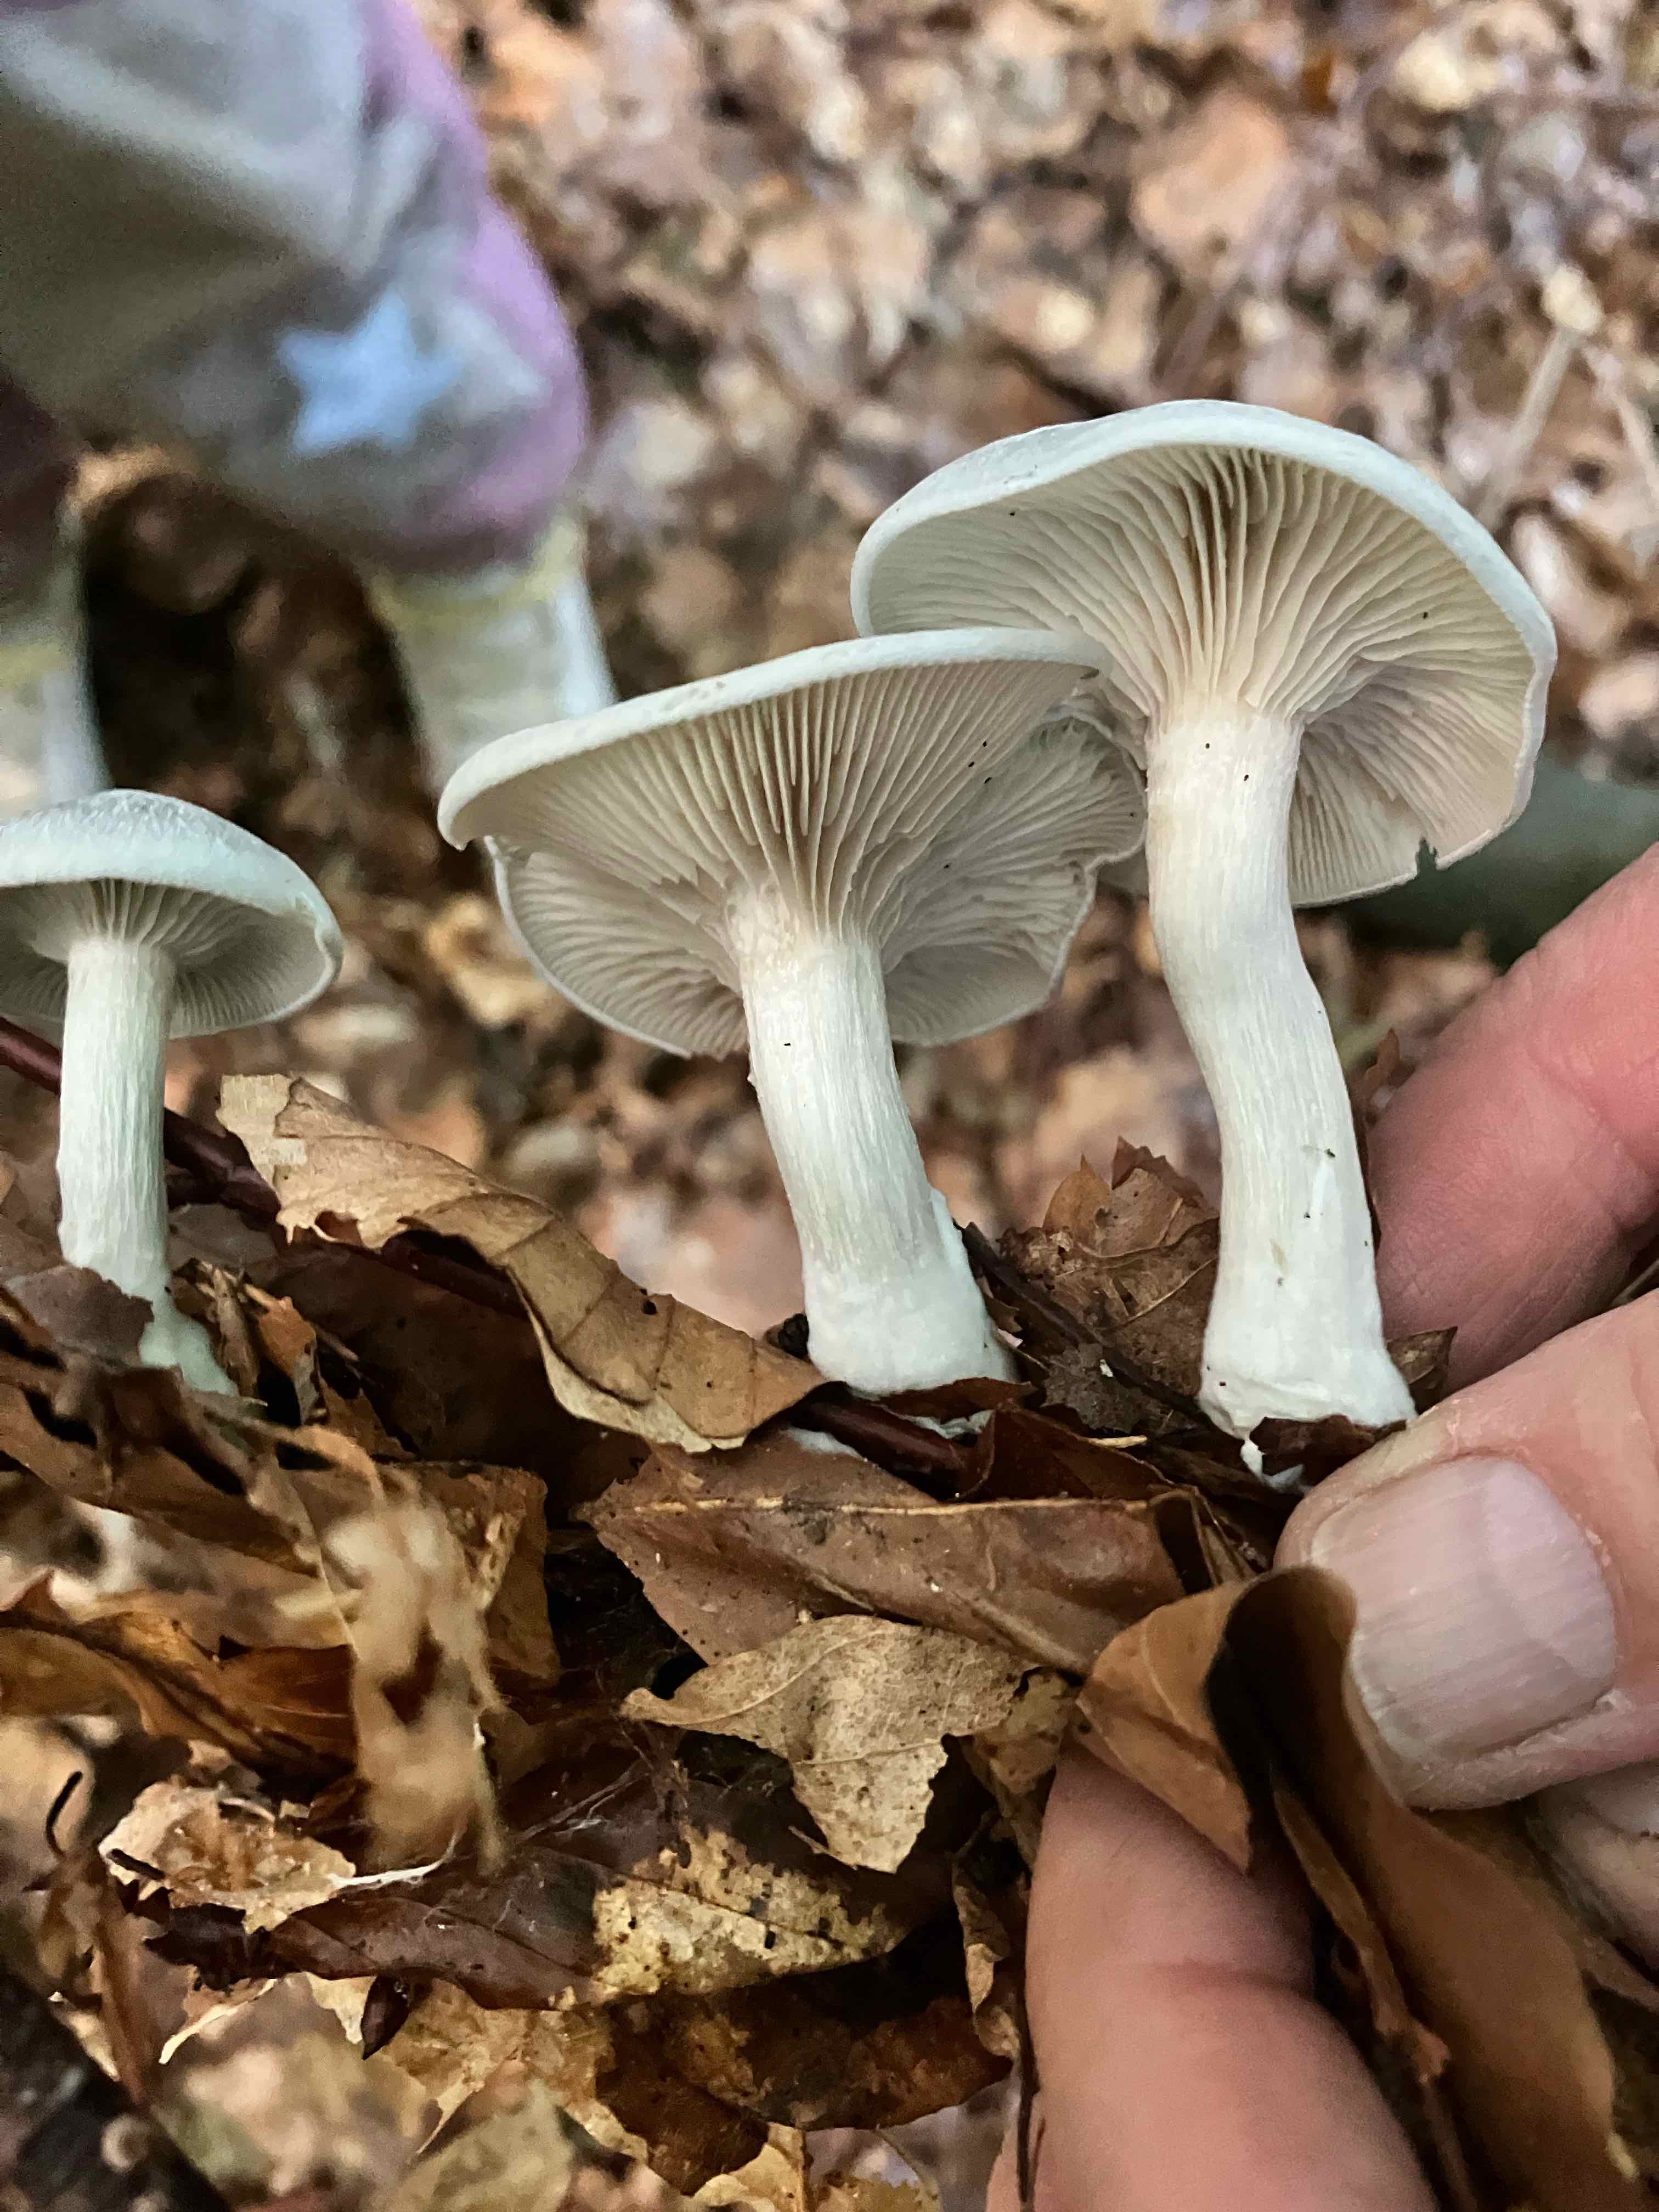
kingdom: Fungi
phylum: Basidiomycota
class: Agaricomycetes
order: Agaricales
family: Tricholomataceae
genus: Clitocybe
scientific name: Clitocybe odora
